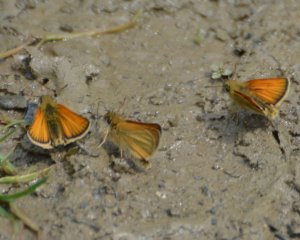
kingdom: Animalia
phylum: Arthropoda
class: Insecta
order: Lepidoptera
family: Hesperiidae
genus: Thymelicus
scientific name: Thymelicus lineola
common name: European Skipper
